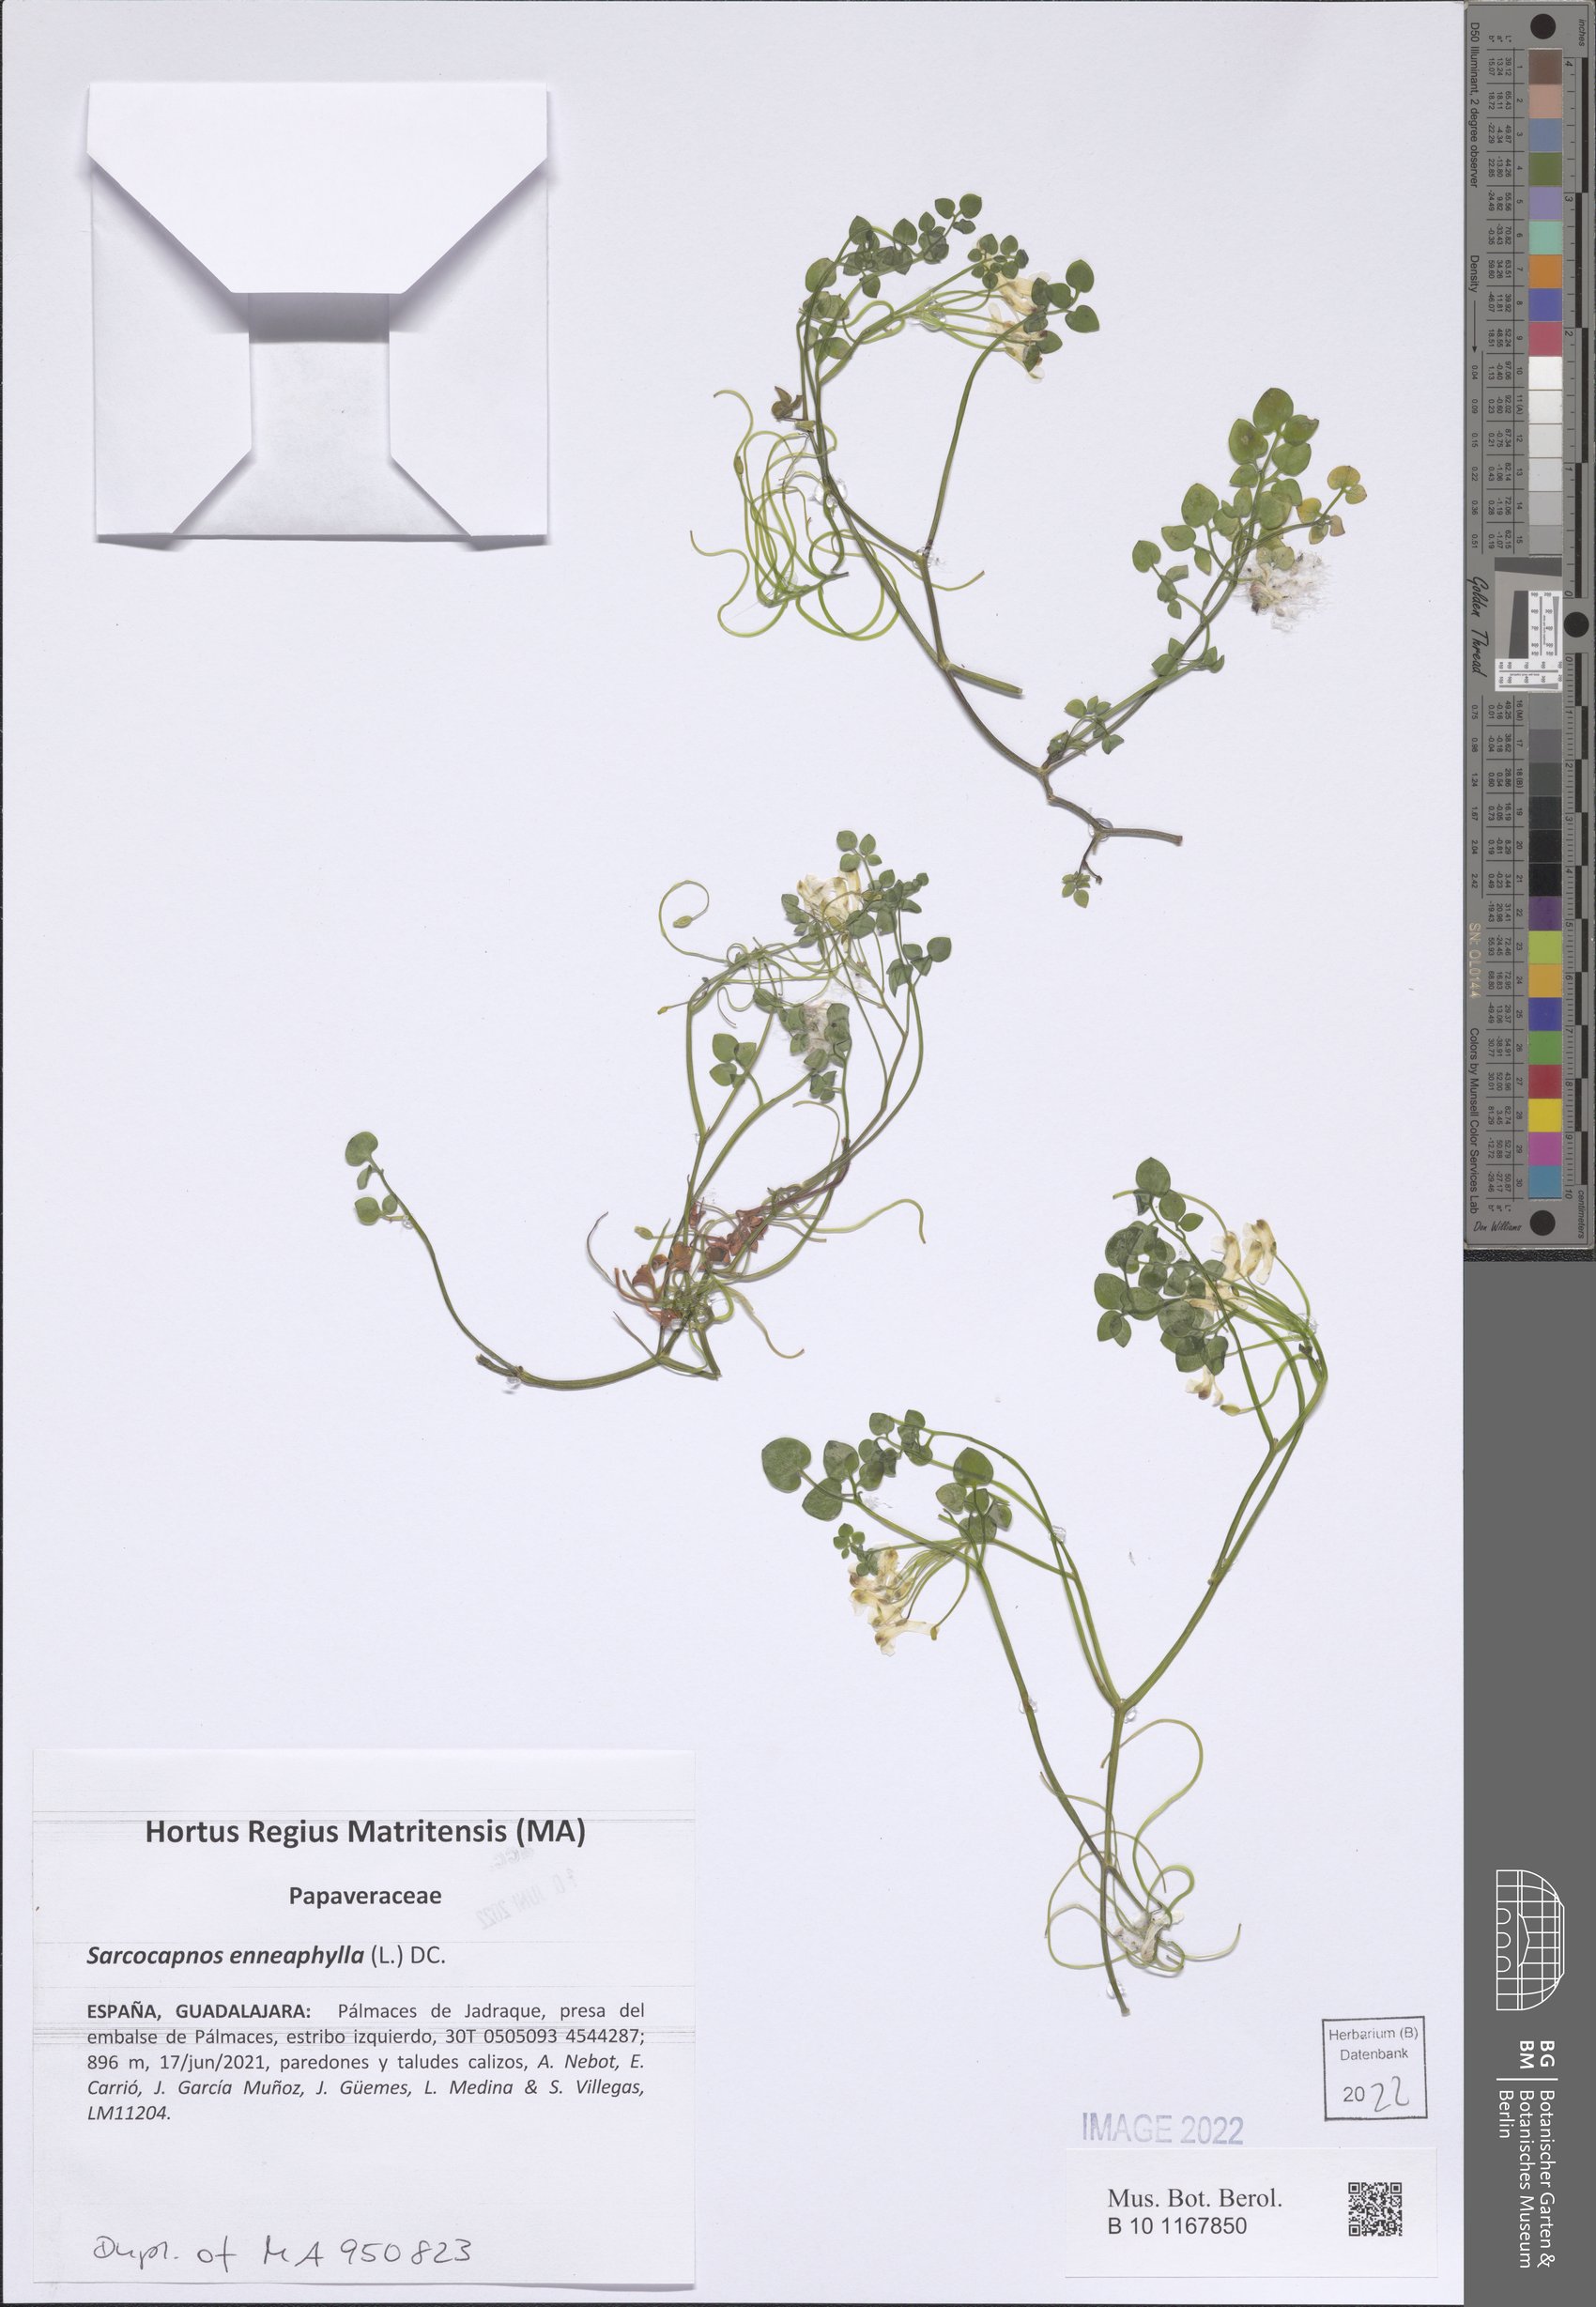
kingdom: Plantae
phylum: Tracheophyta
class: Magnoliopsida
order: Ranunculales
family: Papaveraceae
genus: Sarcocapnos
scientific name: Sarcocapnos enneaphylla
